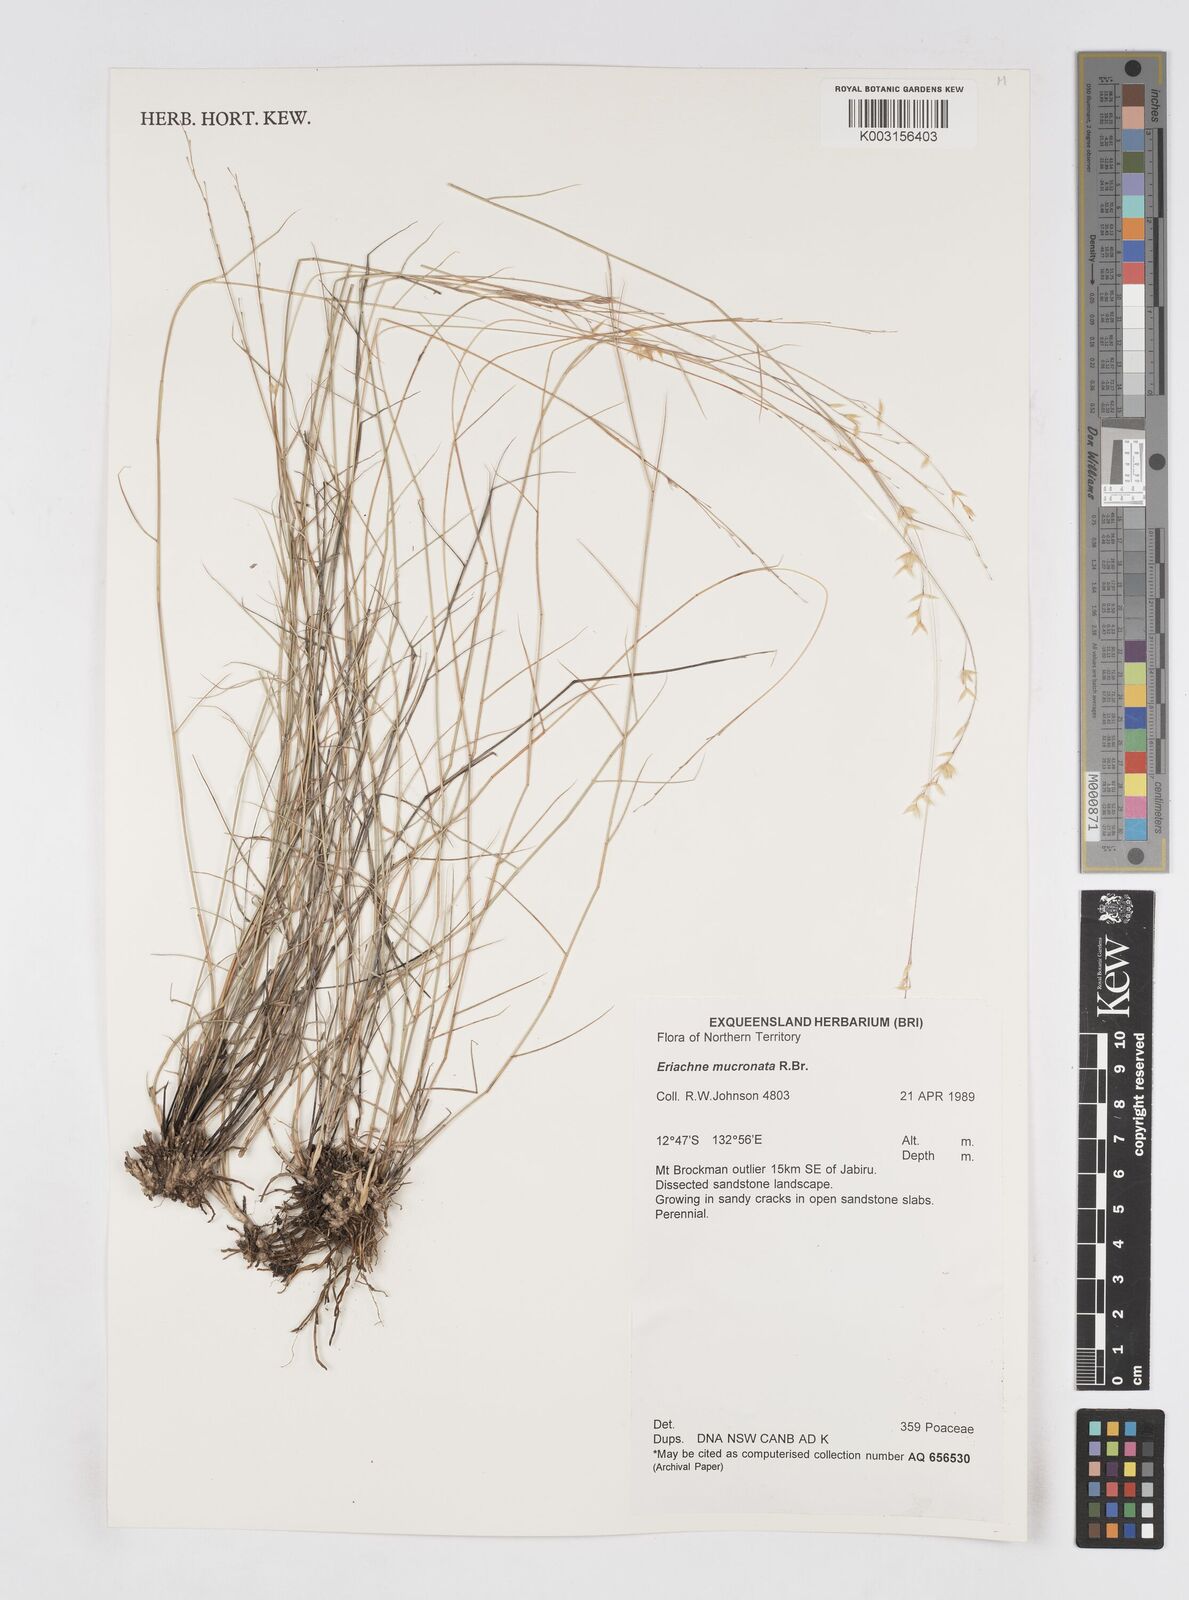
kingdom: Plantae
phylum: Tracheophyta
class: Liliopsida
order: Poales
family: Poaceae
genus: Eriachne
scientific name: Eriachne mucronata
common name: Mountain wanderrie grass
